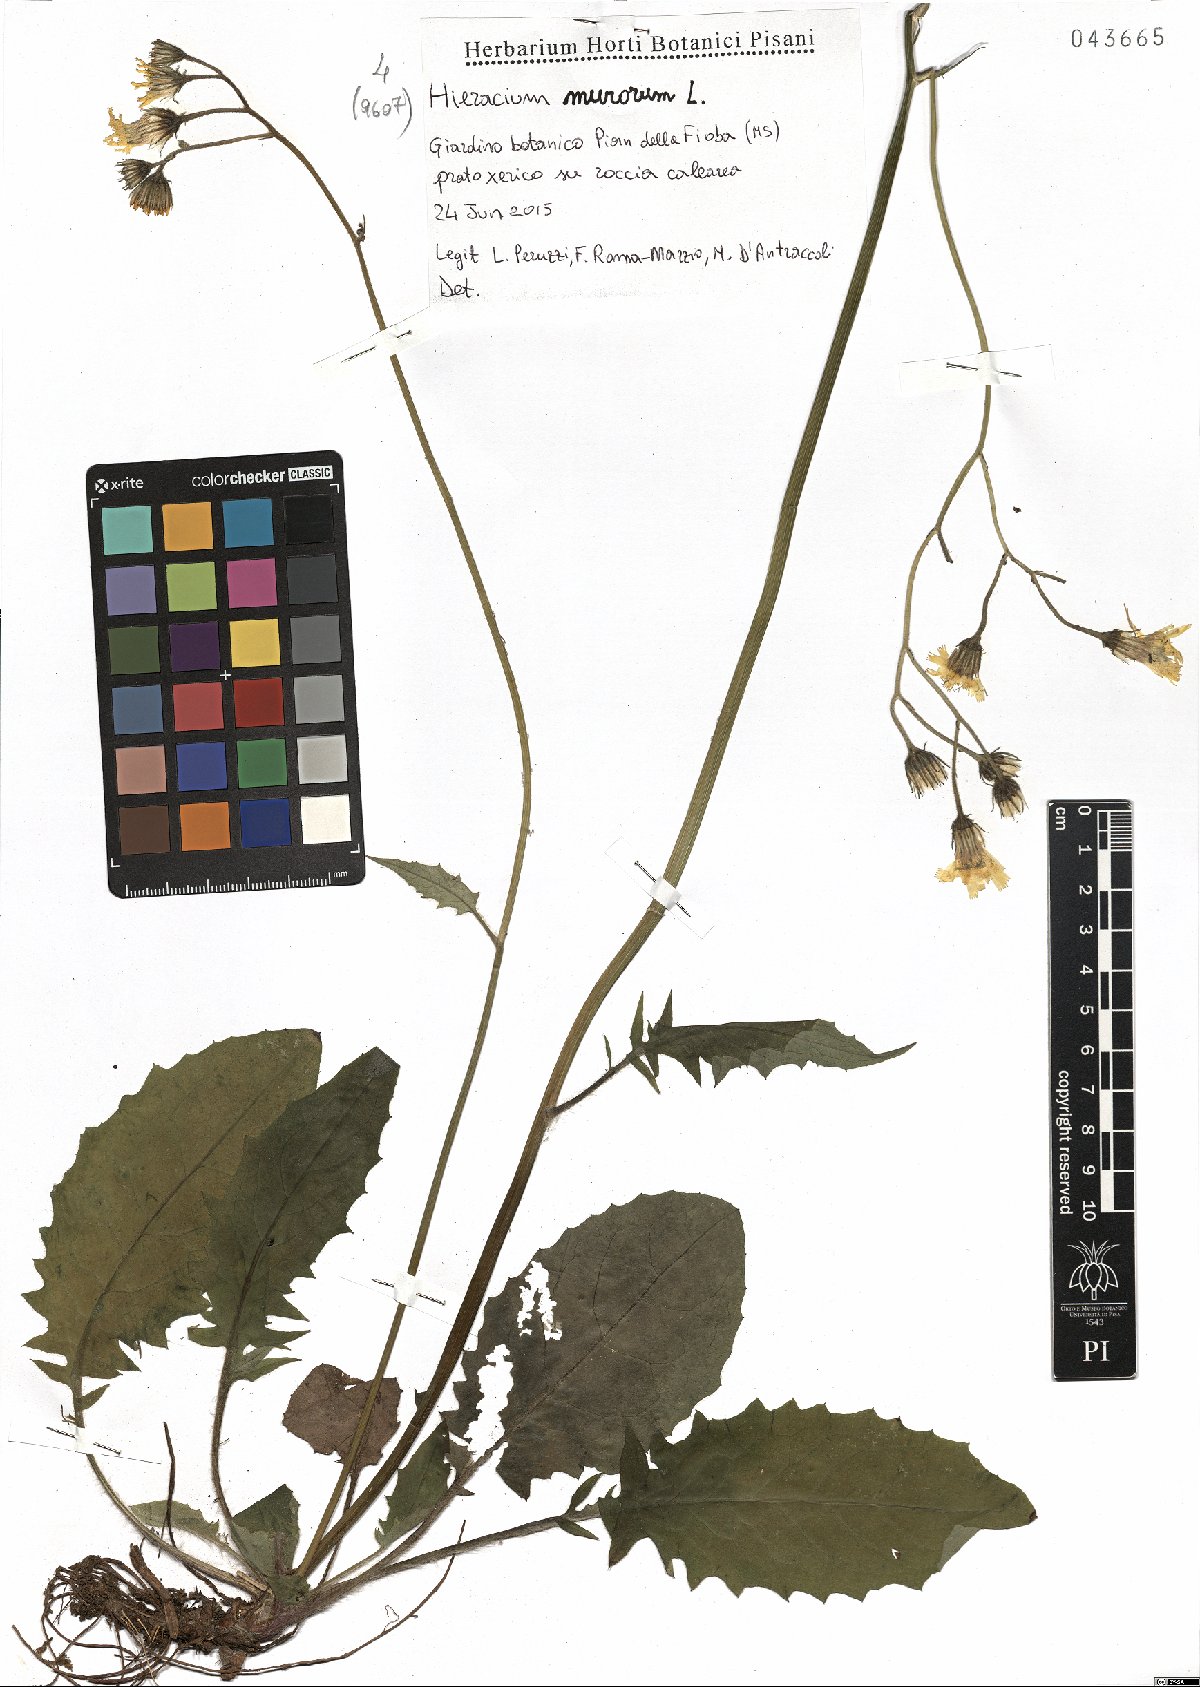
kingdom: Plantae
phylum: Tracheophyta
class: Magnoliopsida
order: Asterales
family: Asteraceae
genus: Hieracium
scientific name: Hieracium murorum
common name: Wall hawkweed
